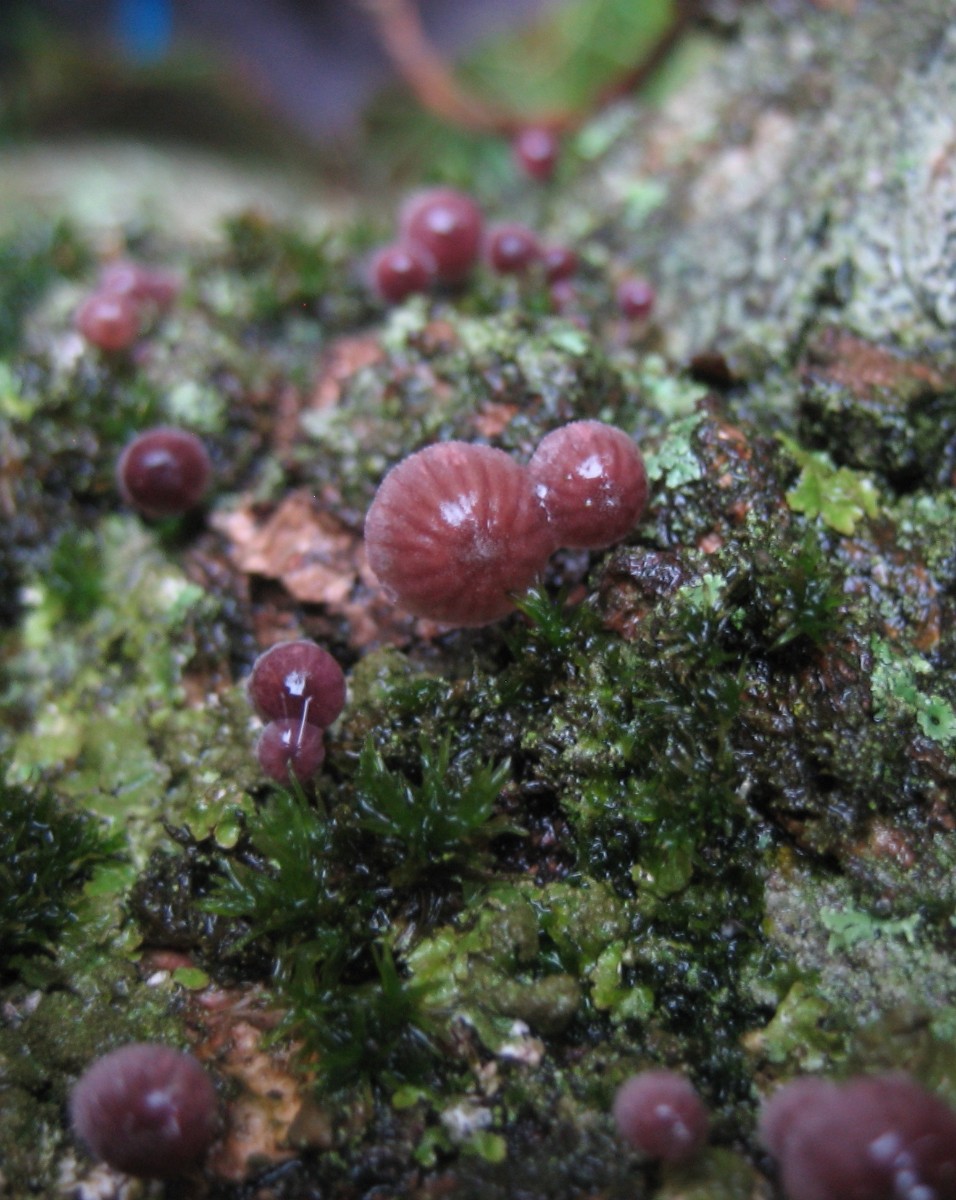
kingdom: Fungi
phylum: Basidiomycota
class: Agaricomycetes
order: Agaricales
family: Mycenaceae
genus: Mycena
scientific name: Mycena meliigena
